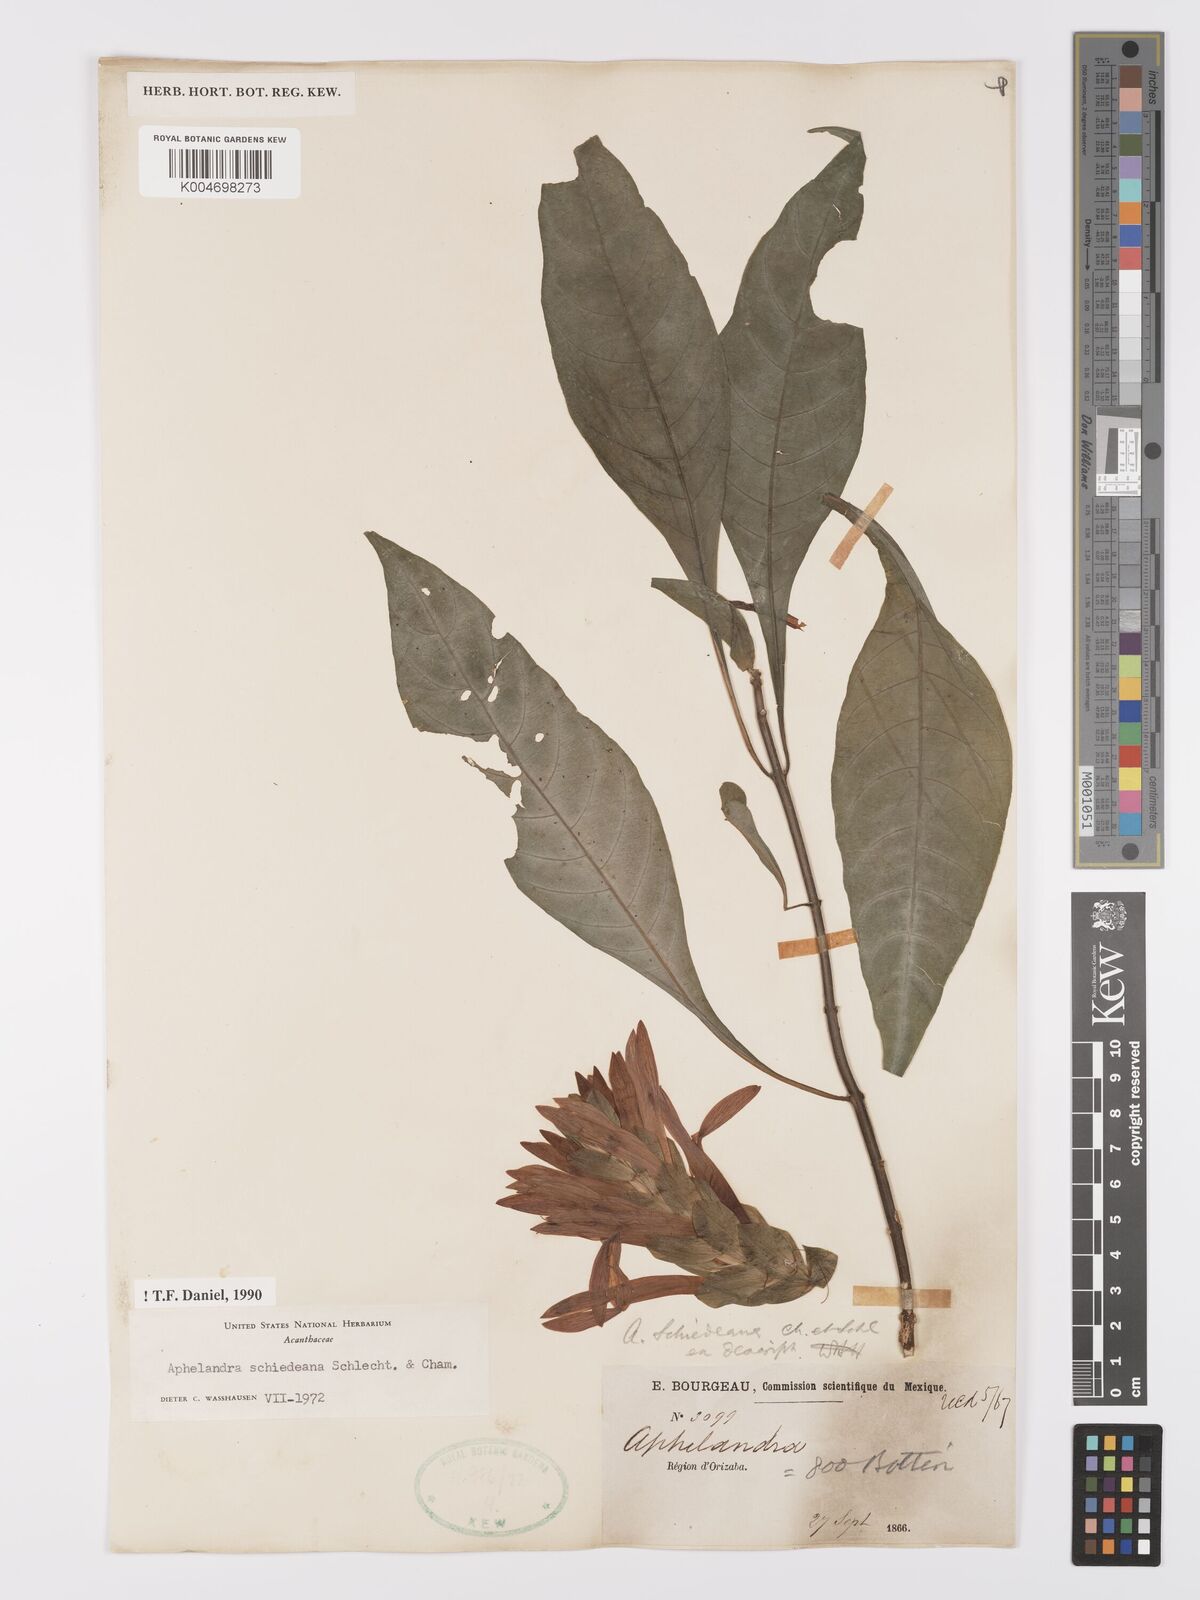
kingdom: Plantae
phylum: Tracheophyta
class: Magnoliopsida
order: Lamiales
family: Acanthaceae
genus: Aphelandra
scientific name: Aphelandra schiedeana
